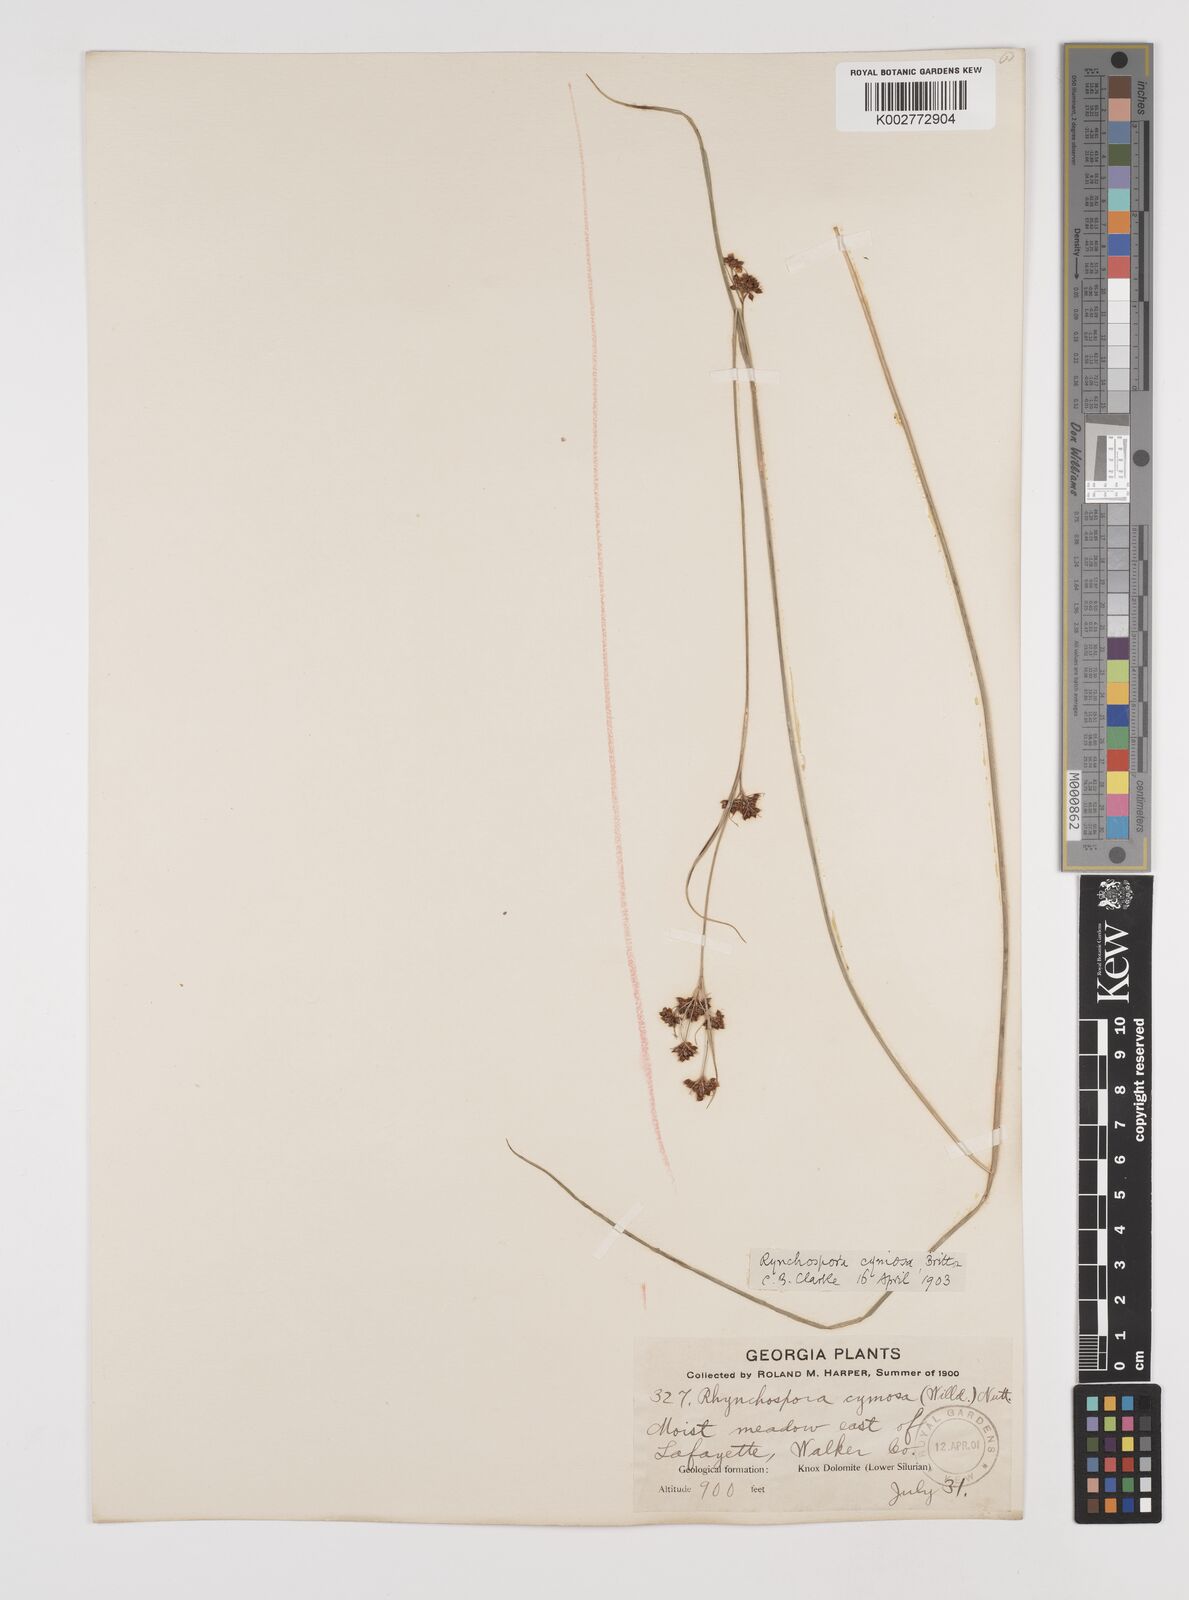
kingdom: Plantae
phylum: Tracheophyta
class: Liliopsida
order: Poales
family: Cyperaceae
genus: Scirpus
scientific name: Scirpus polyphyllus
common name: Leafy bulrush
